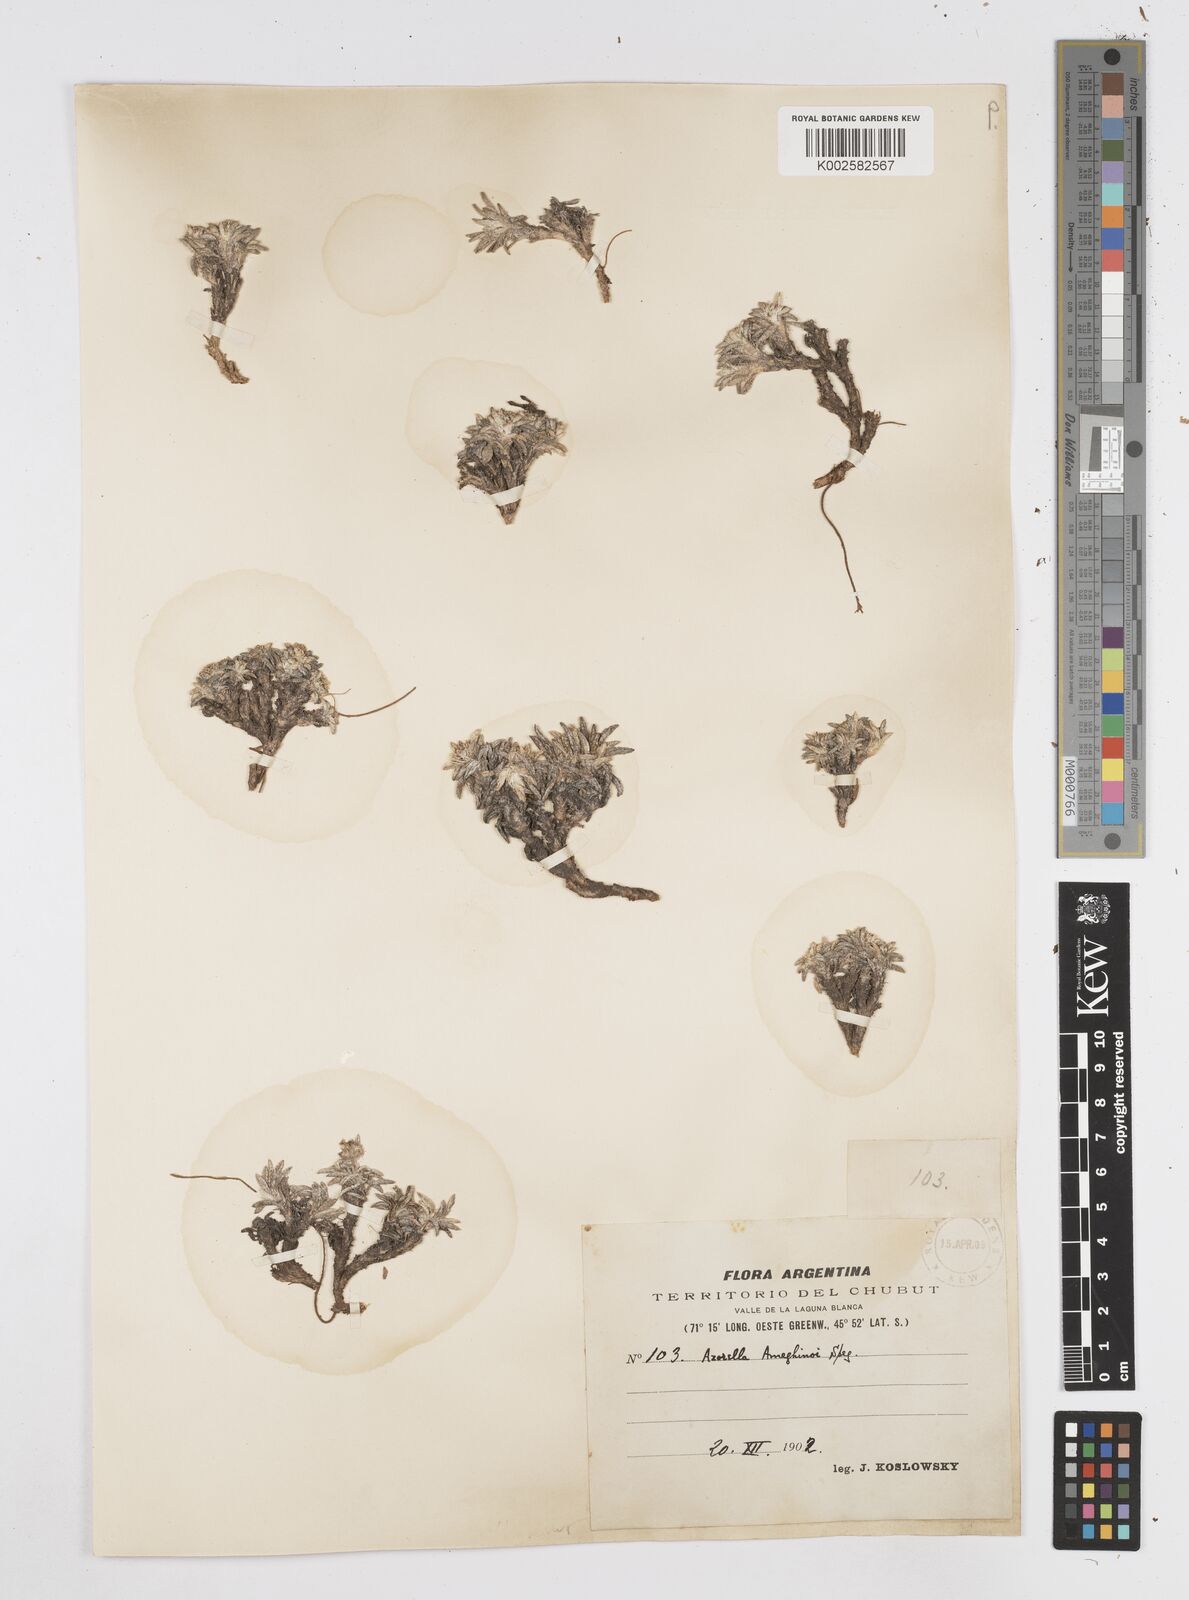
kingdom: Plantae
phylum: Tracheophyta
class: Magnoliopsida
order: Apiales
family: Apiaceae
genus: Azorella
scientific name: Azorella ameghinoi
